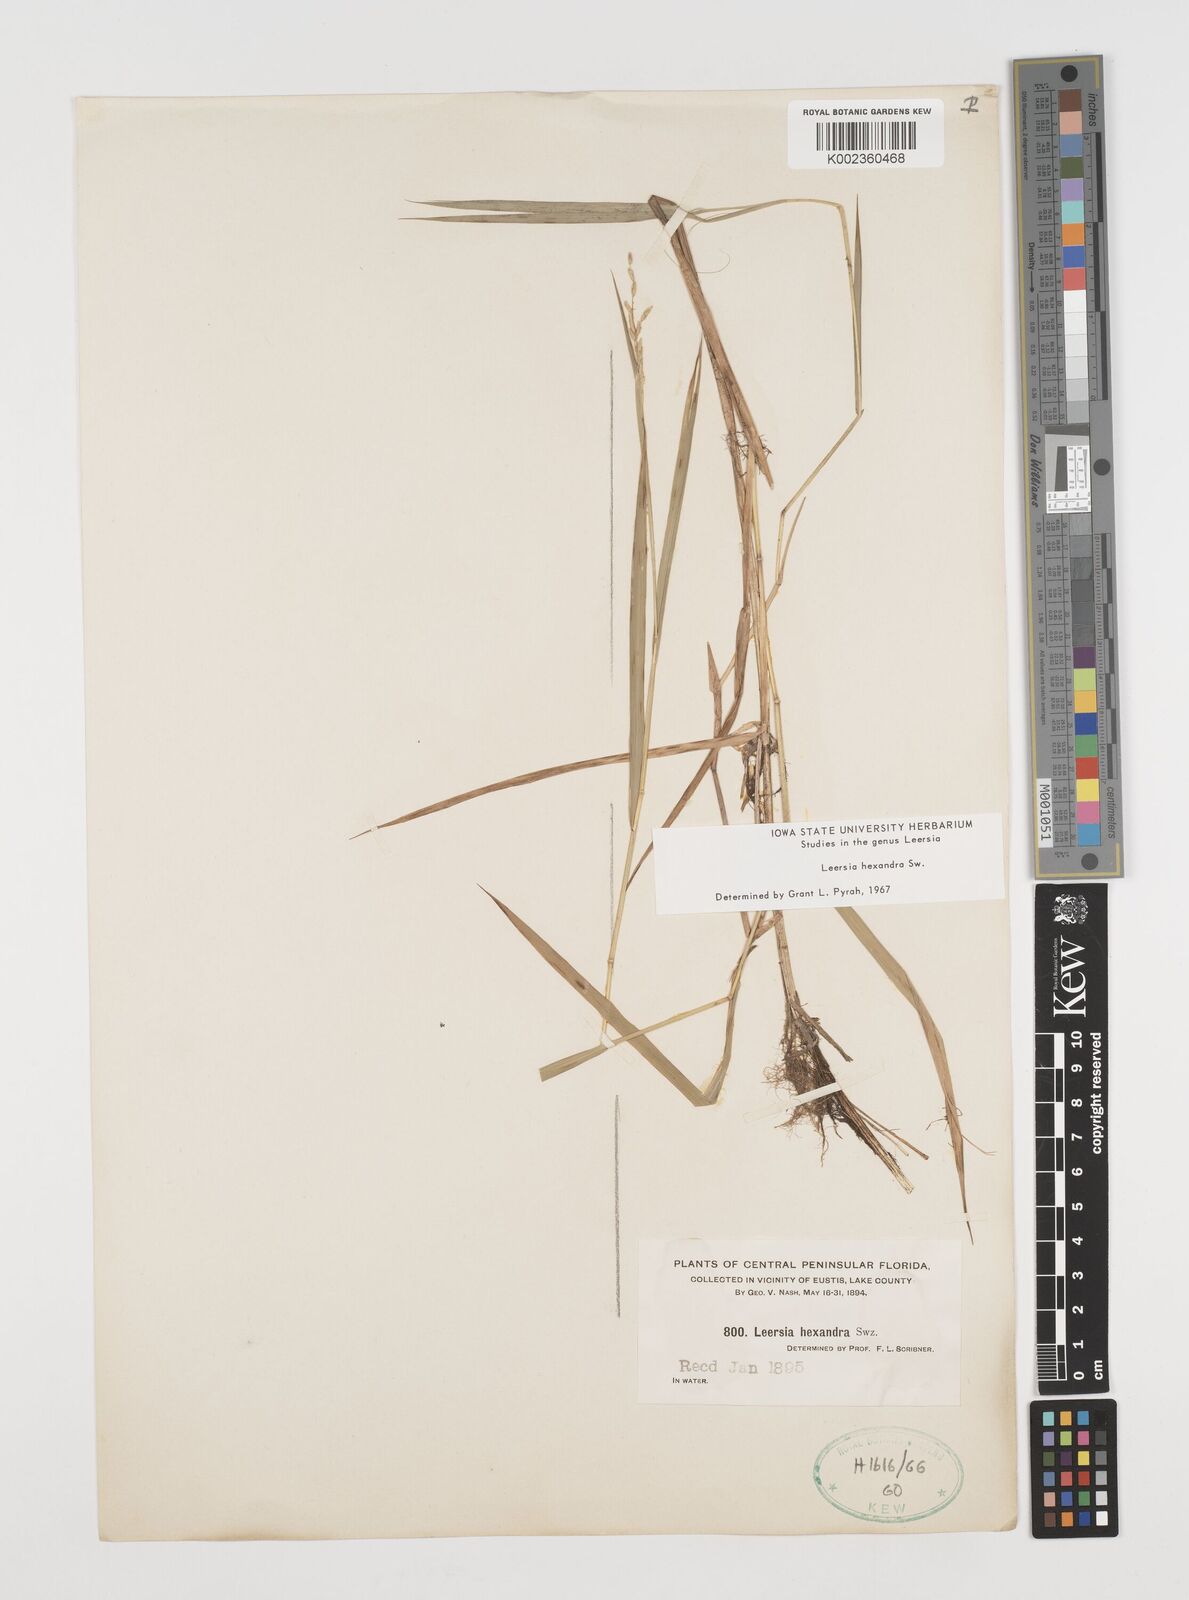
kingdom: Plantae
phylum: Tracheophyta
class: Liliopsida
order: Poales
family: Poaceae
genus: Leersia
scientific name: Leersia hexandra
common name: Southern cut grass
